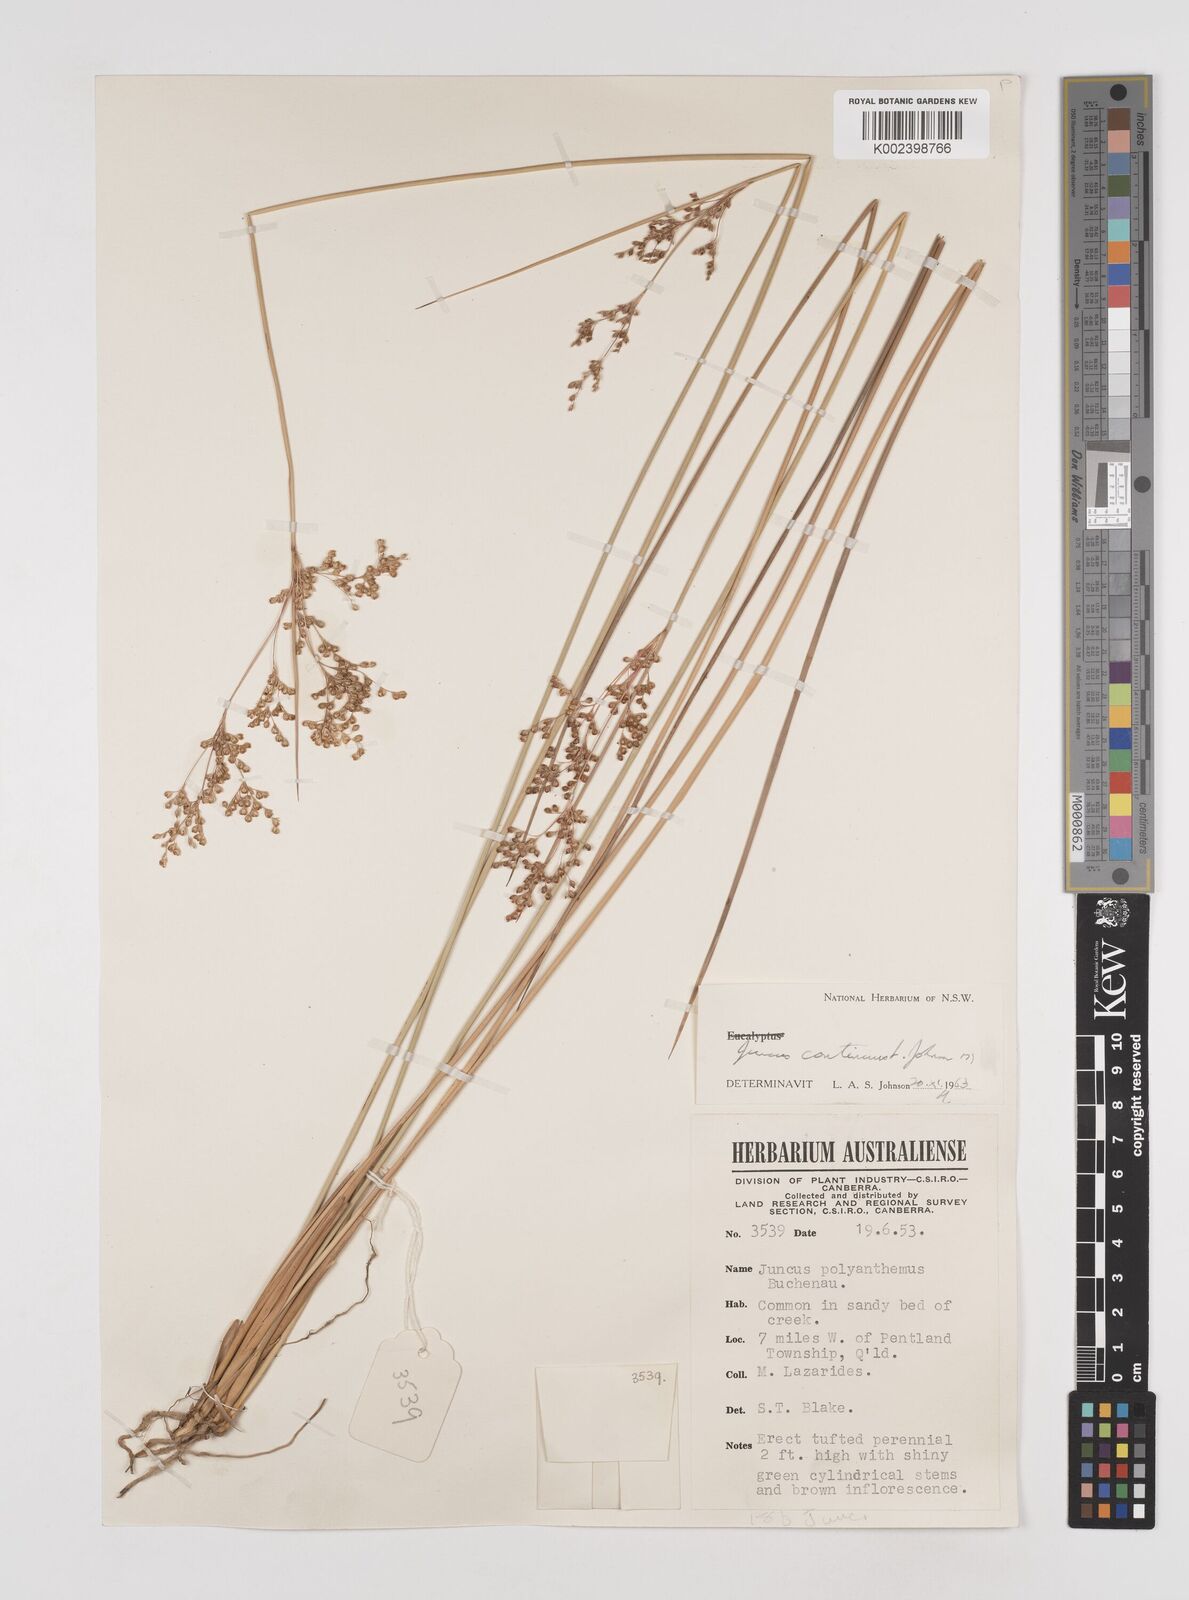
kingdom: Plantae
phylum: Tracheophyta
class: Liliopsida
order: Poales
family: Juncaceae
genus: Juncus
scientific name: Juncus continuus
